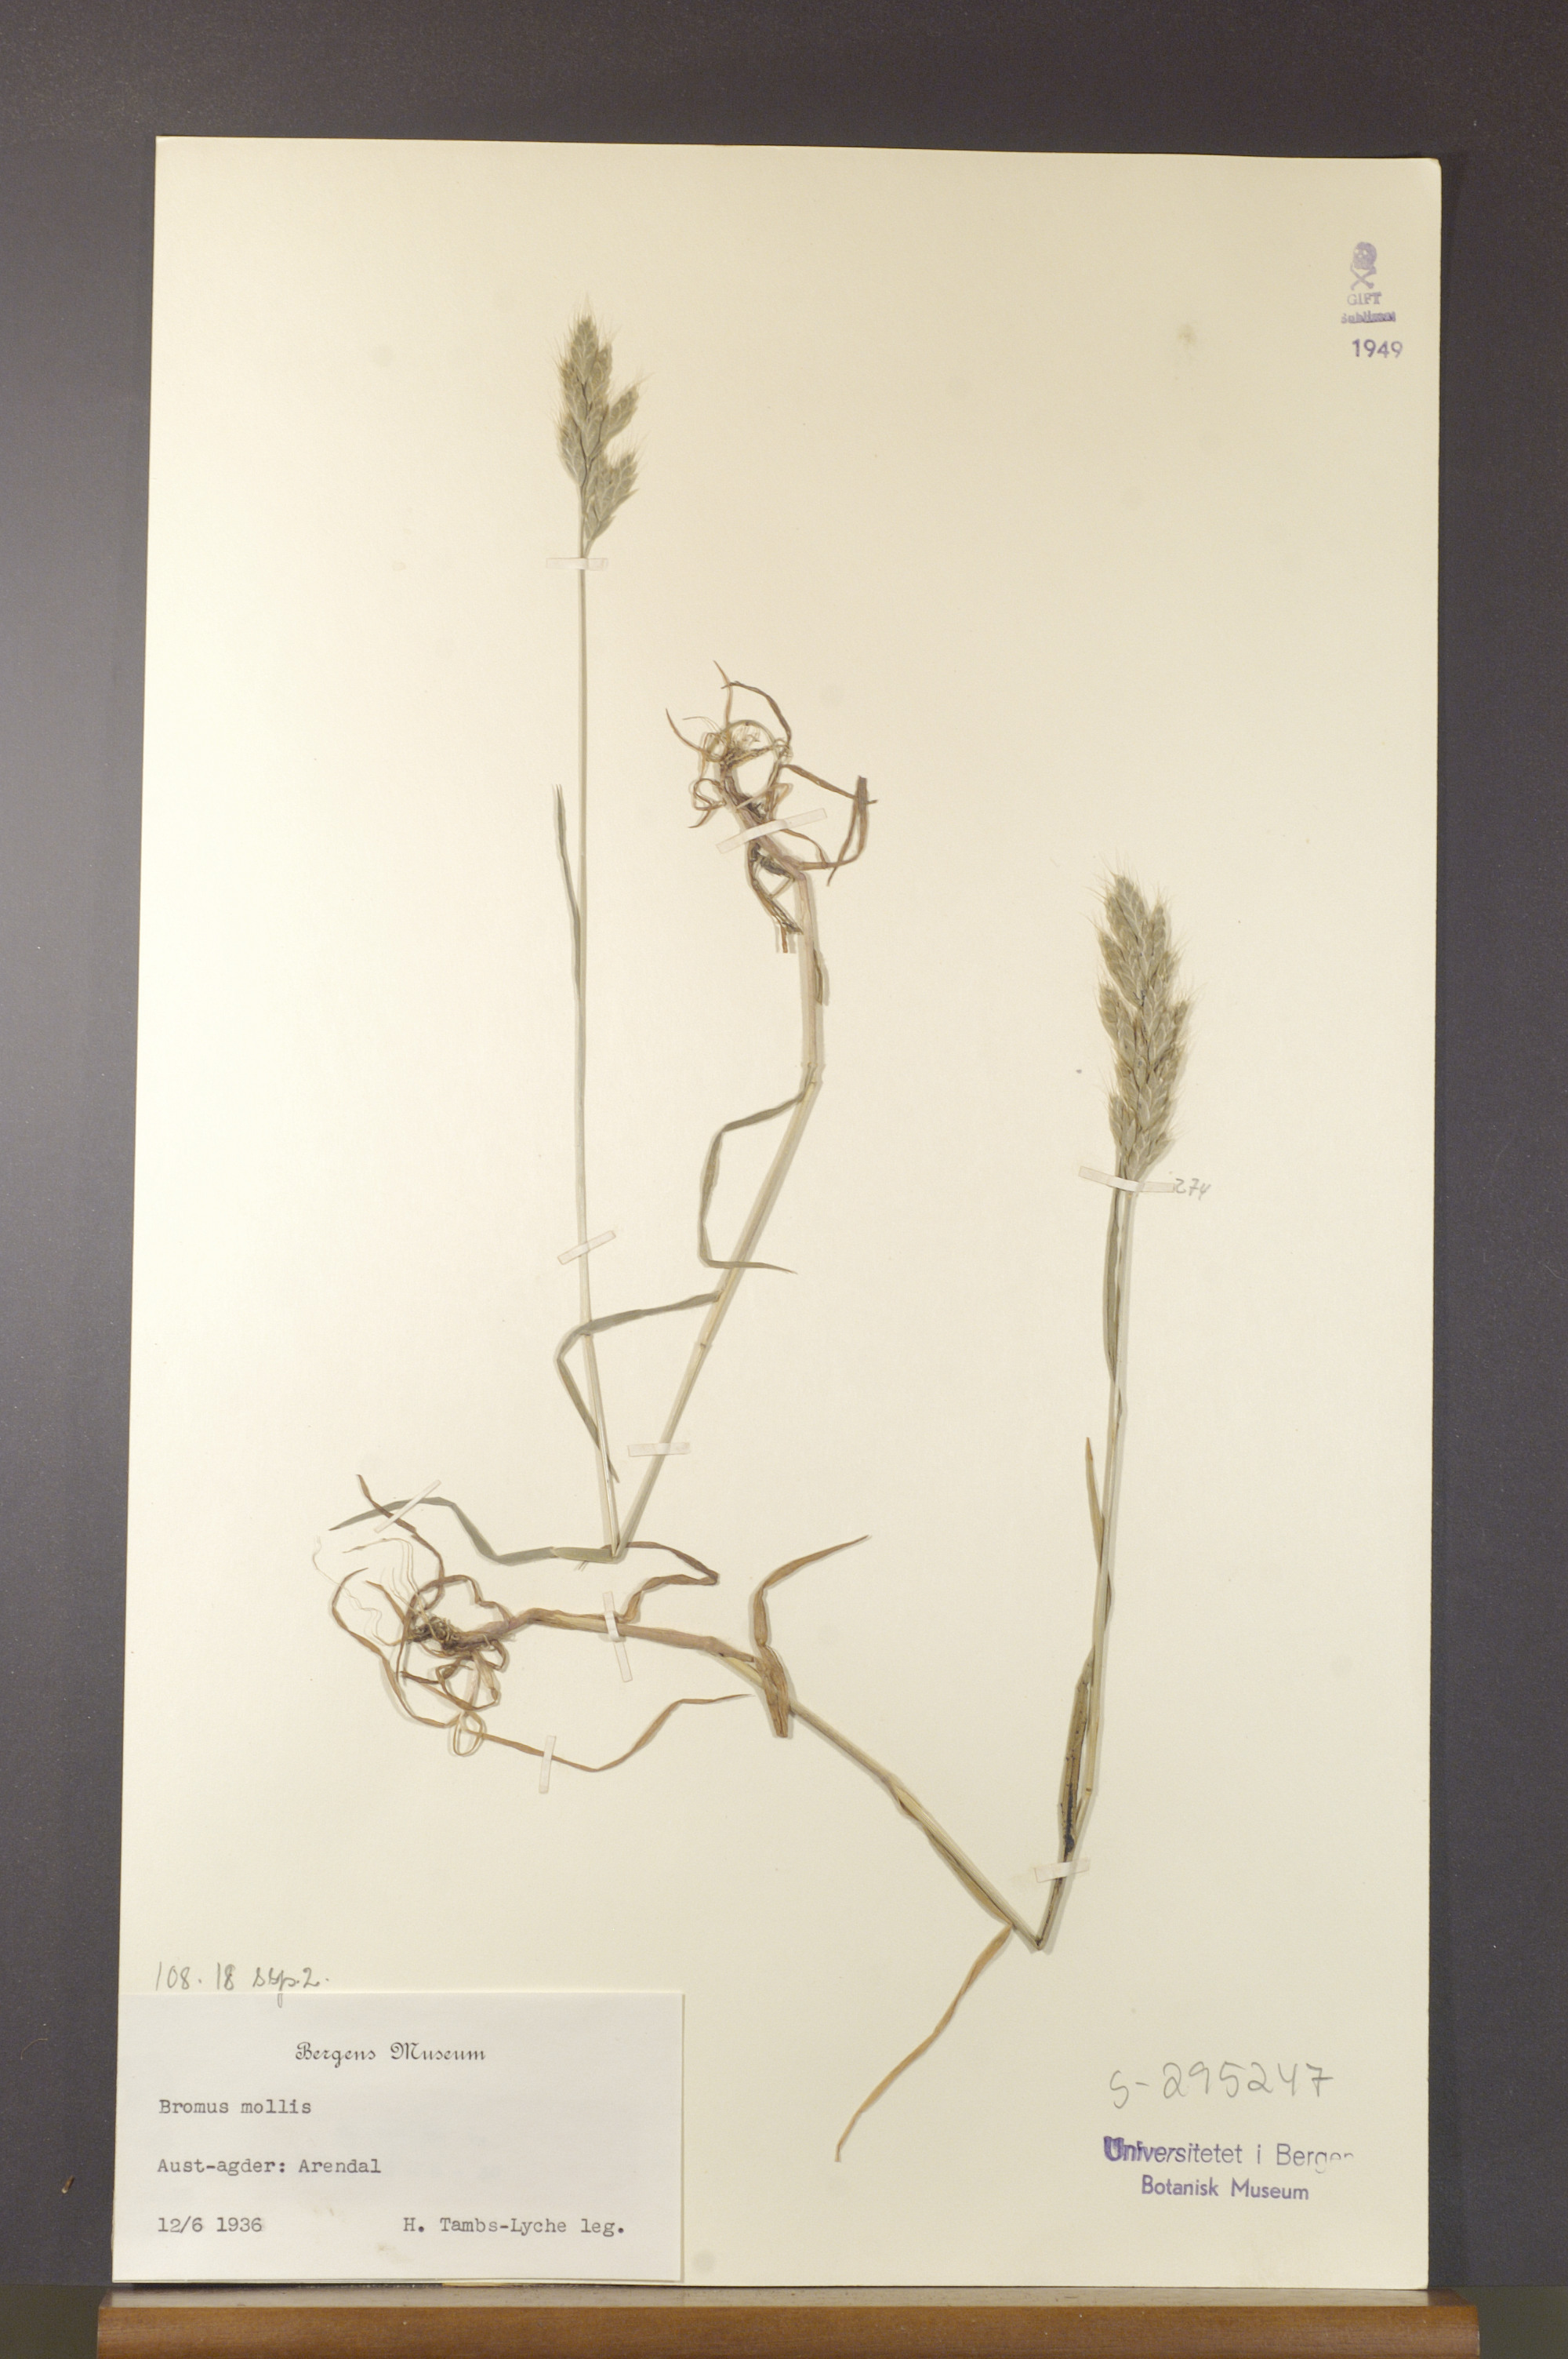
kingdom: Plantae
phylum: Tracheophyta
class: Liliopsida
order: Poales
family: Poaceae
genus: Bromus
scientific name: Bromus hordeaceus
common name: Soft brome
